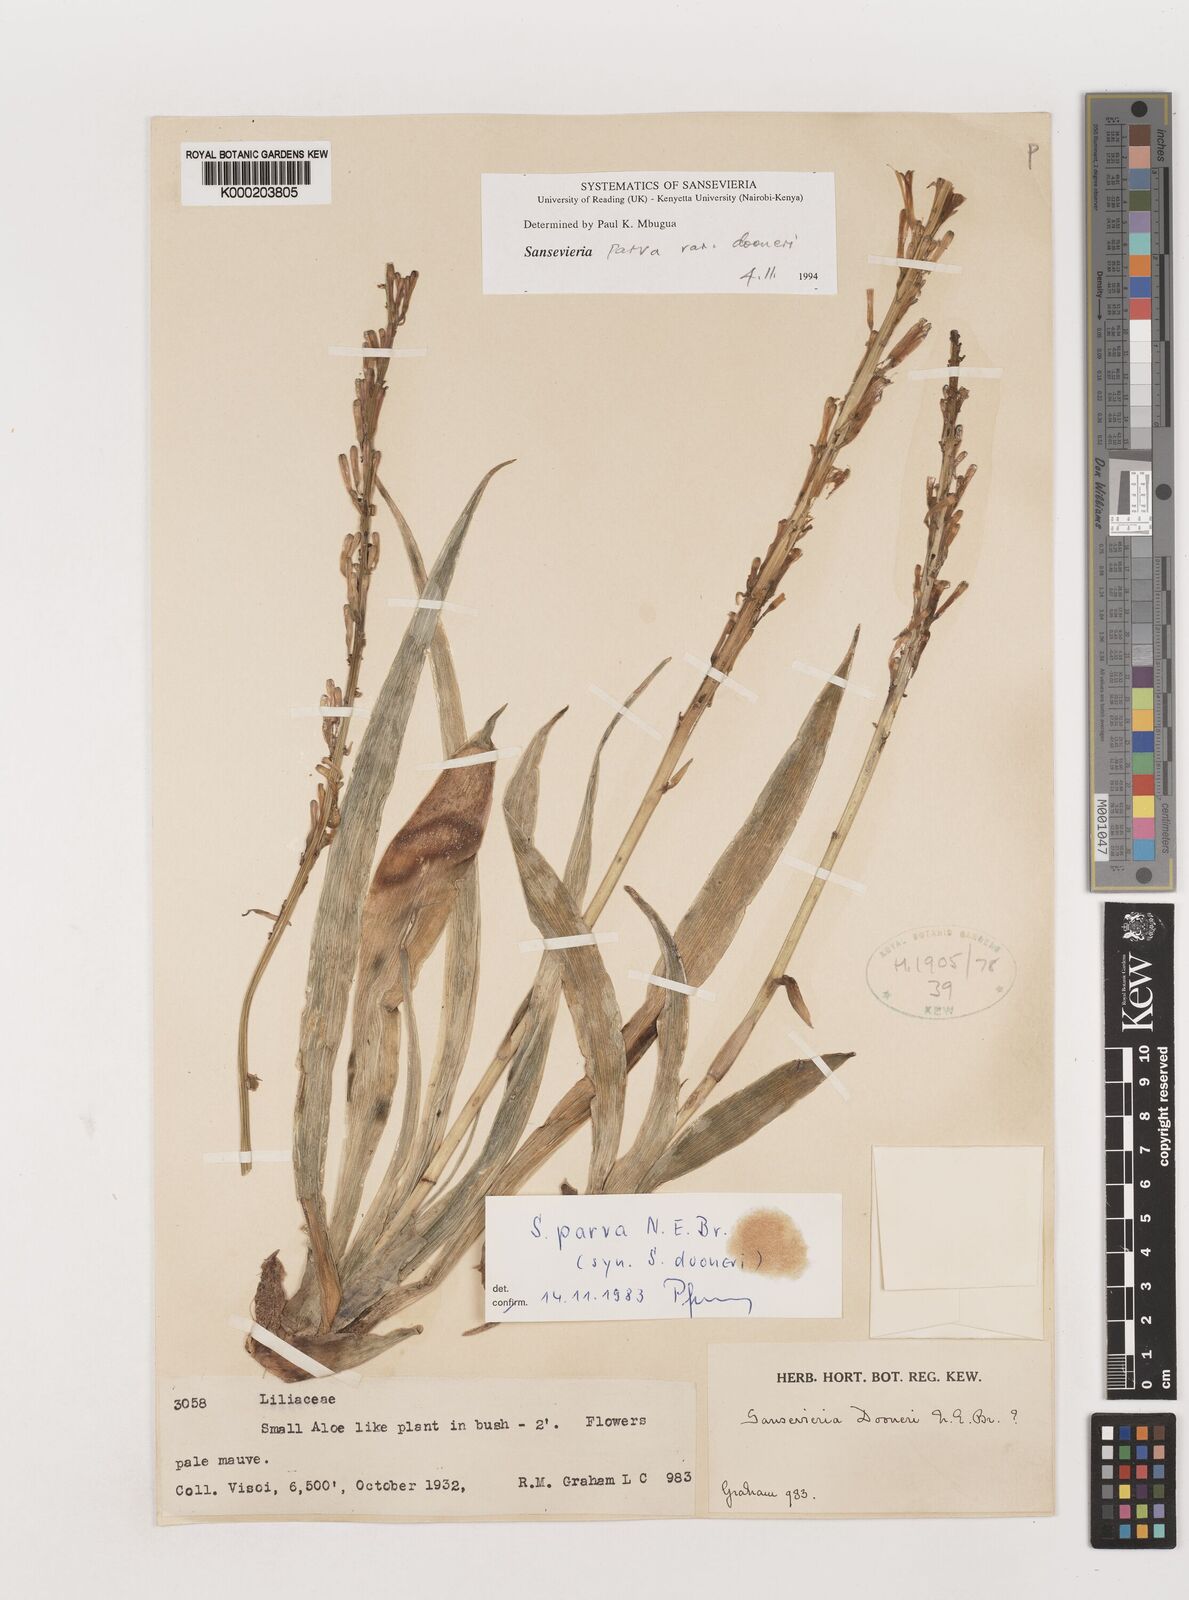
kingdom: Plantae
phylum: Tracheophyta
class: Liliopsida
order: Asparagales
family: Asparagaceae
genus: Dracaena
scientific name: Dracaena parva
